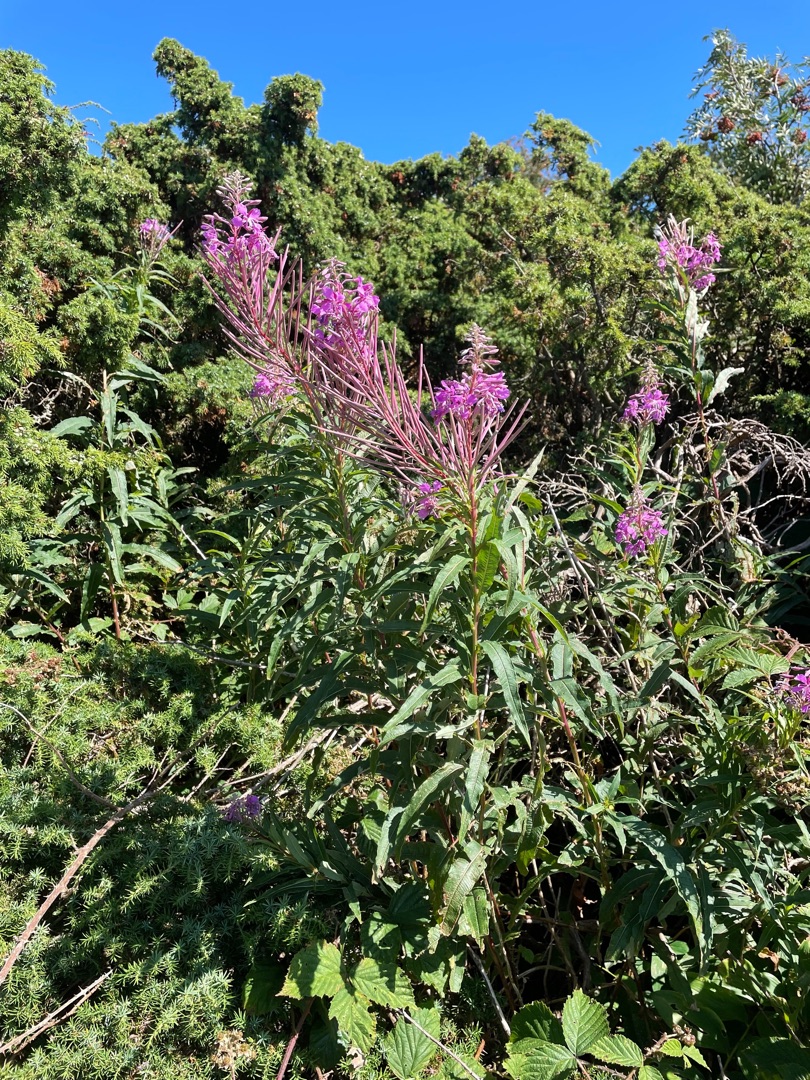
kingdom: Plantae
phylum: Tracheophyta
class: Magnoliopsida
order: Myrtales
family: Onagraceae
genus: Chamaenerion
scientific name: Chamaenerion angustifolium
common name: Gederams
